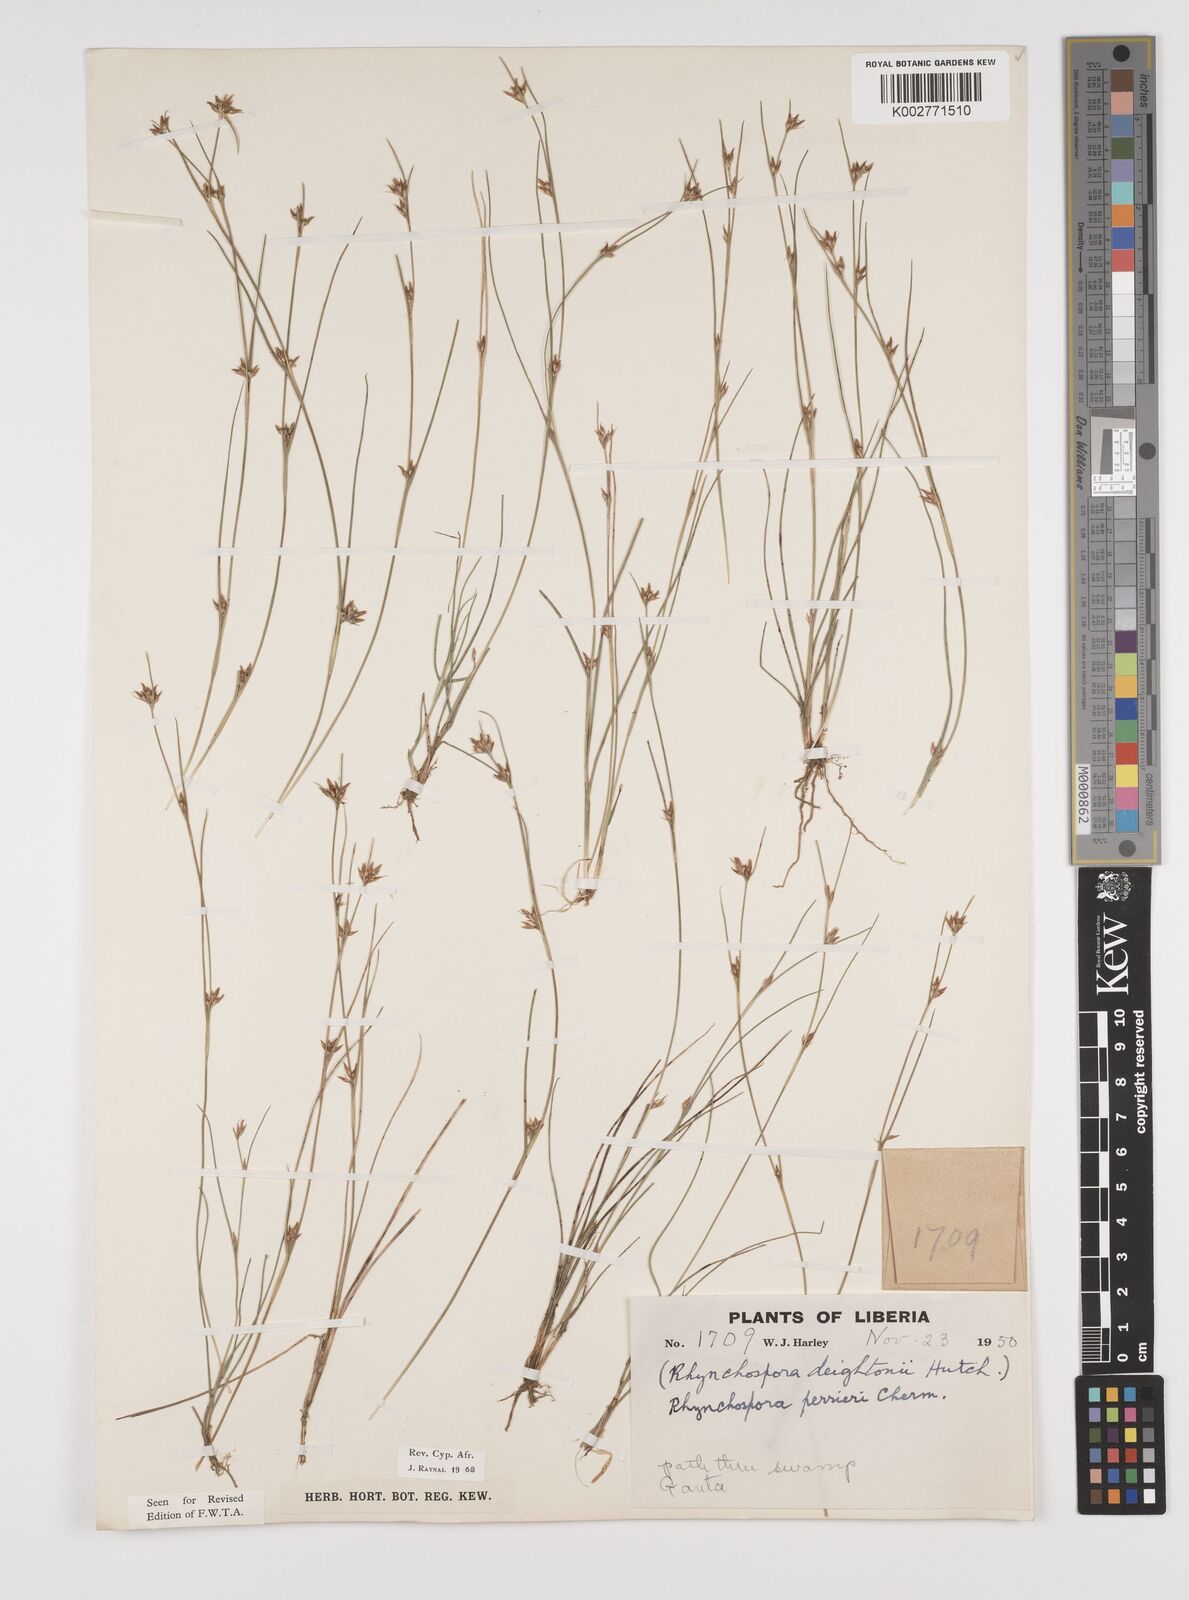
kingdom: Plantae
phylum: Tracheophyta
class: Liliopsida
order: Poales
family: Cyperaceae
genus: Rhynchospora
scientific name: Rhynchospora perrieri
